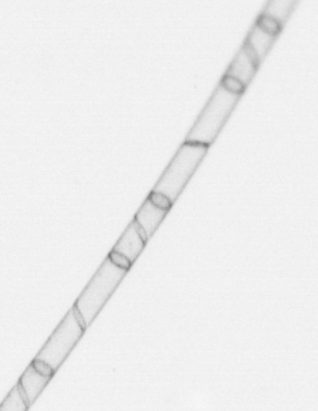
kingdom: Chromista
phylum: Ochrophyta
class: Bacillariophyceae
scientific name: Bacillariophyceae
